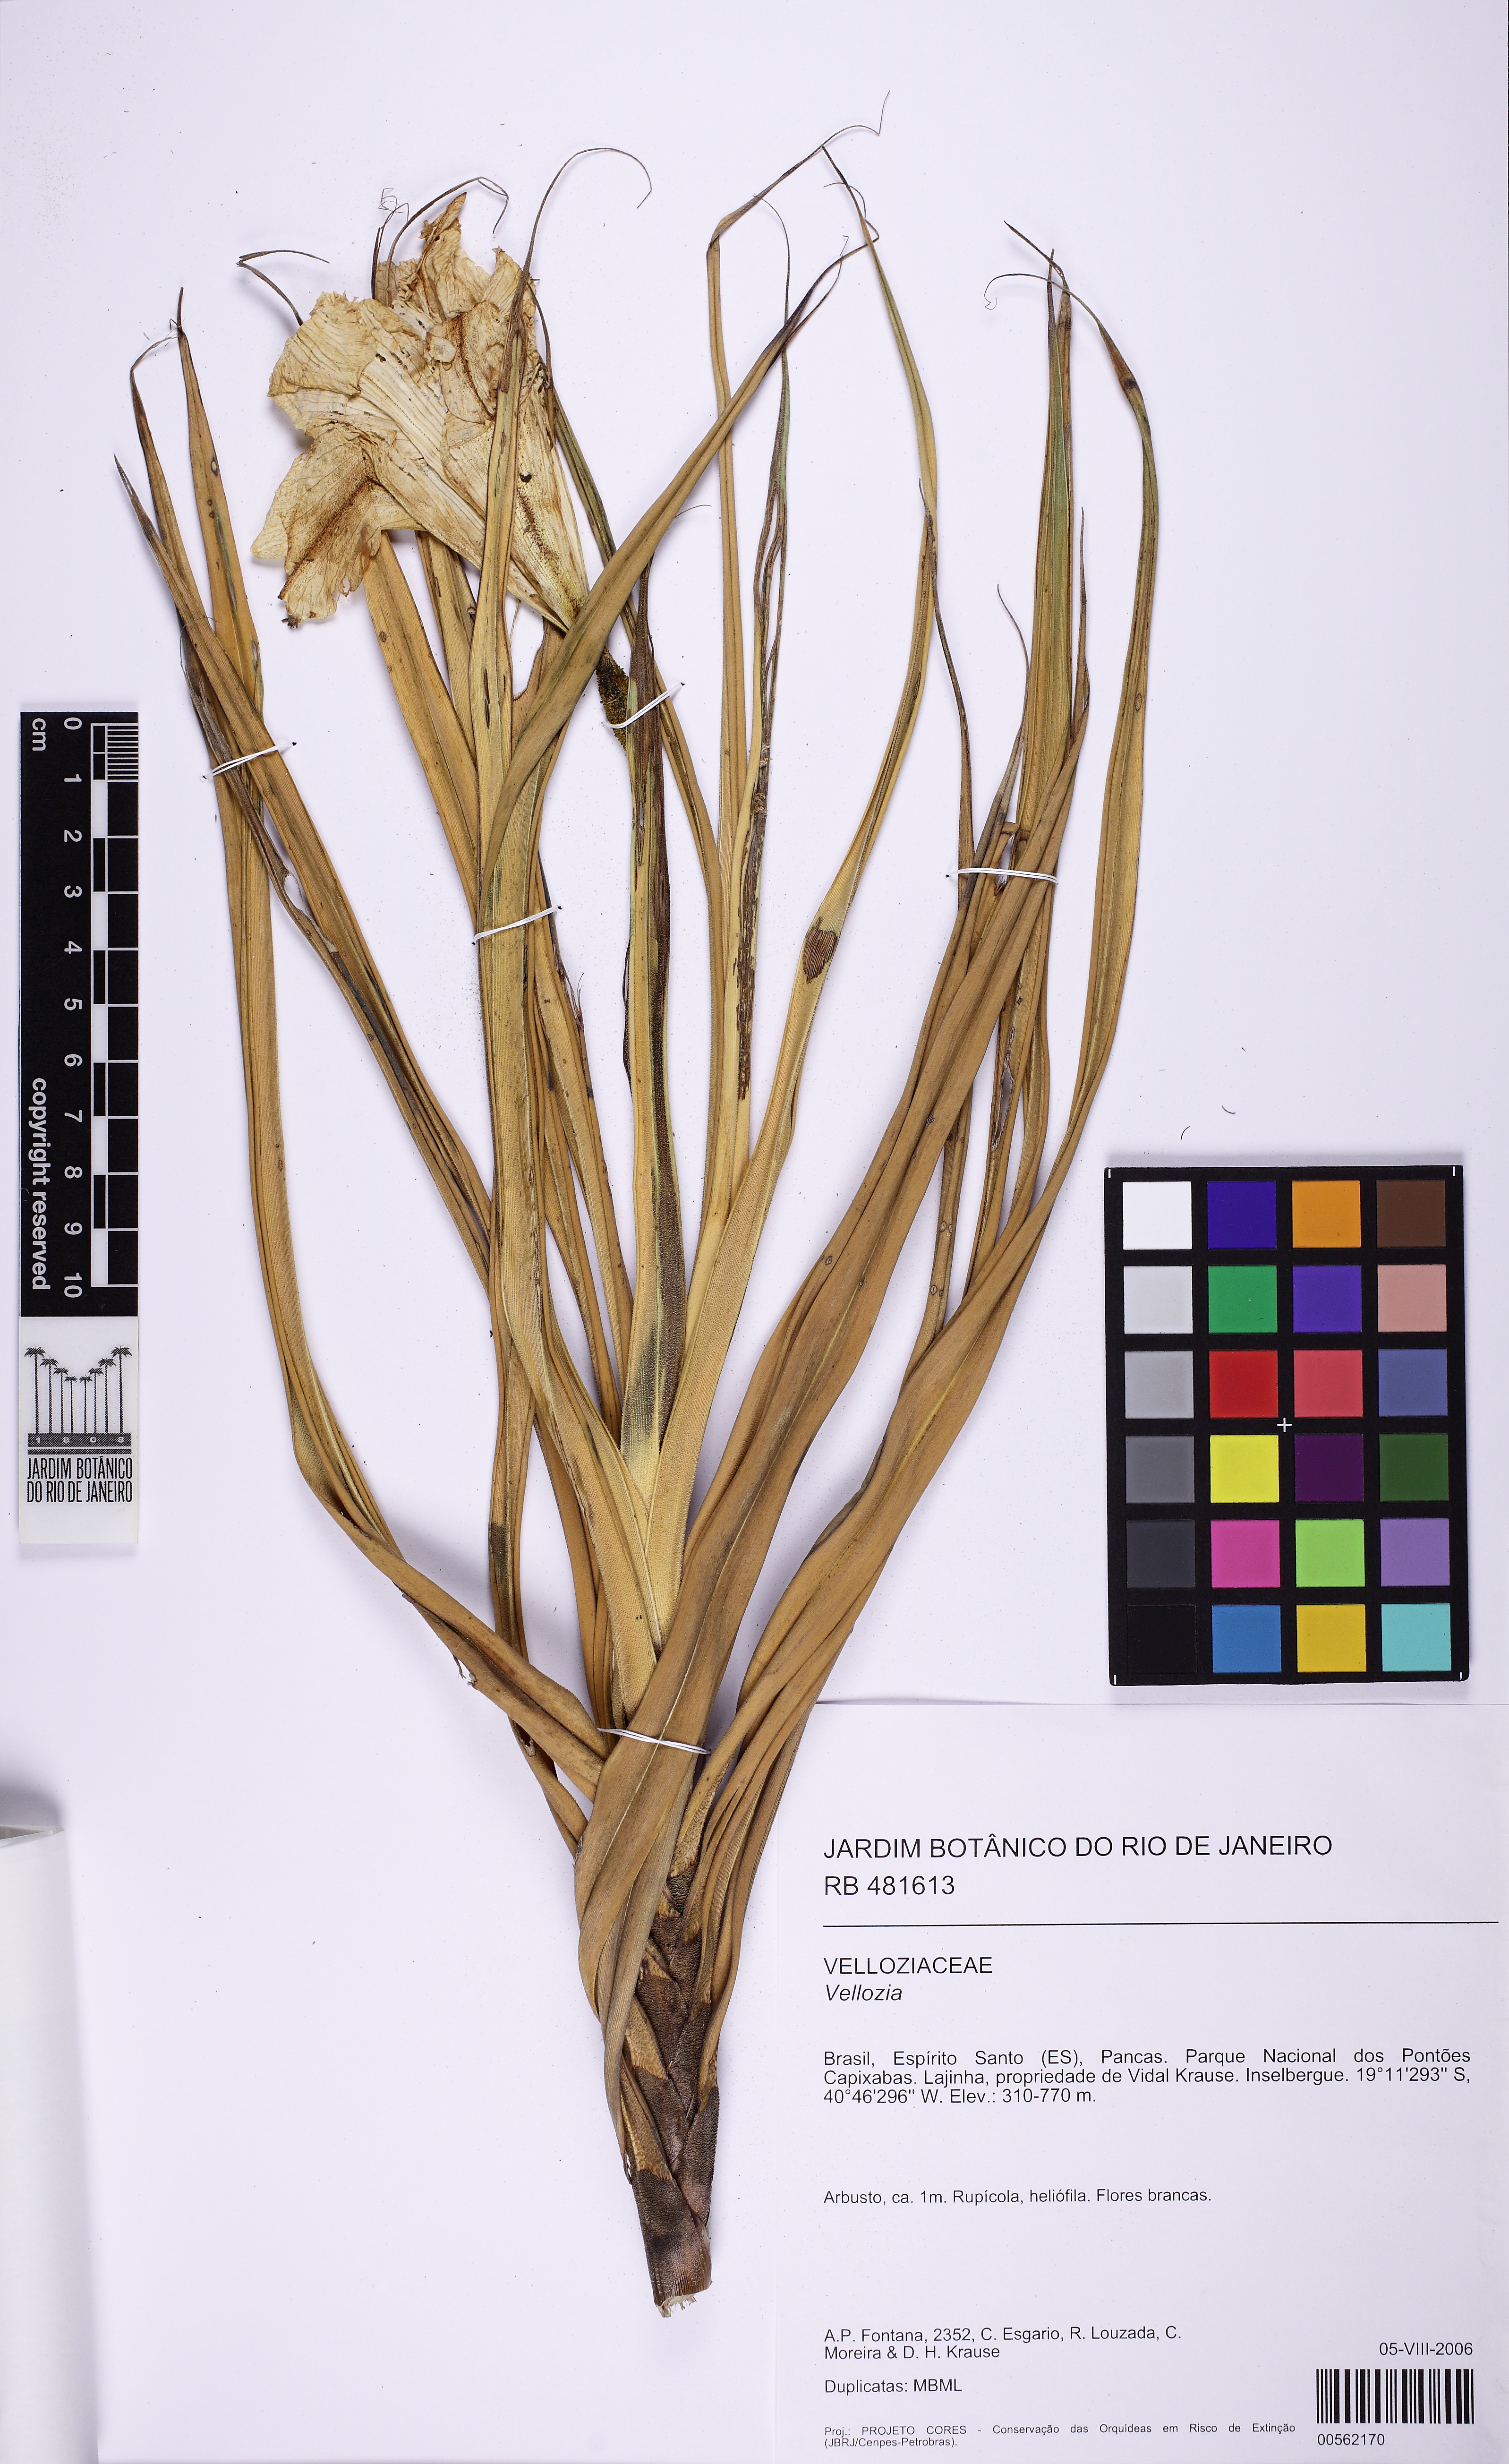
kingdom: Plantae
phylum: Tracheophyta
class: Liliopsida
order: Pandanales
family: Velloziaceae
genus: Vellozia
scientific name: Vellozia candida
